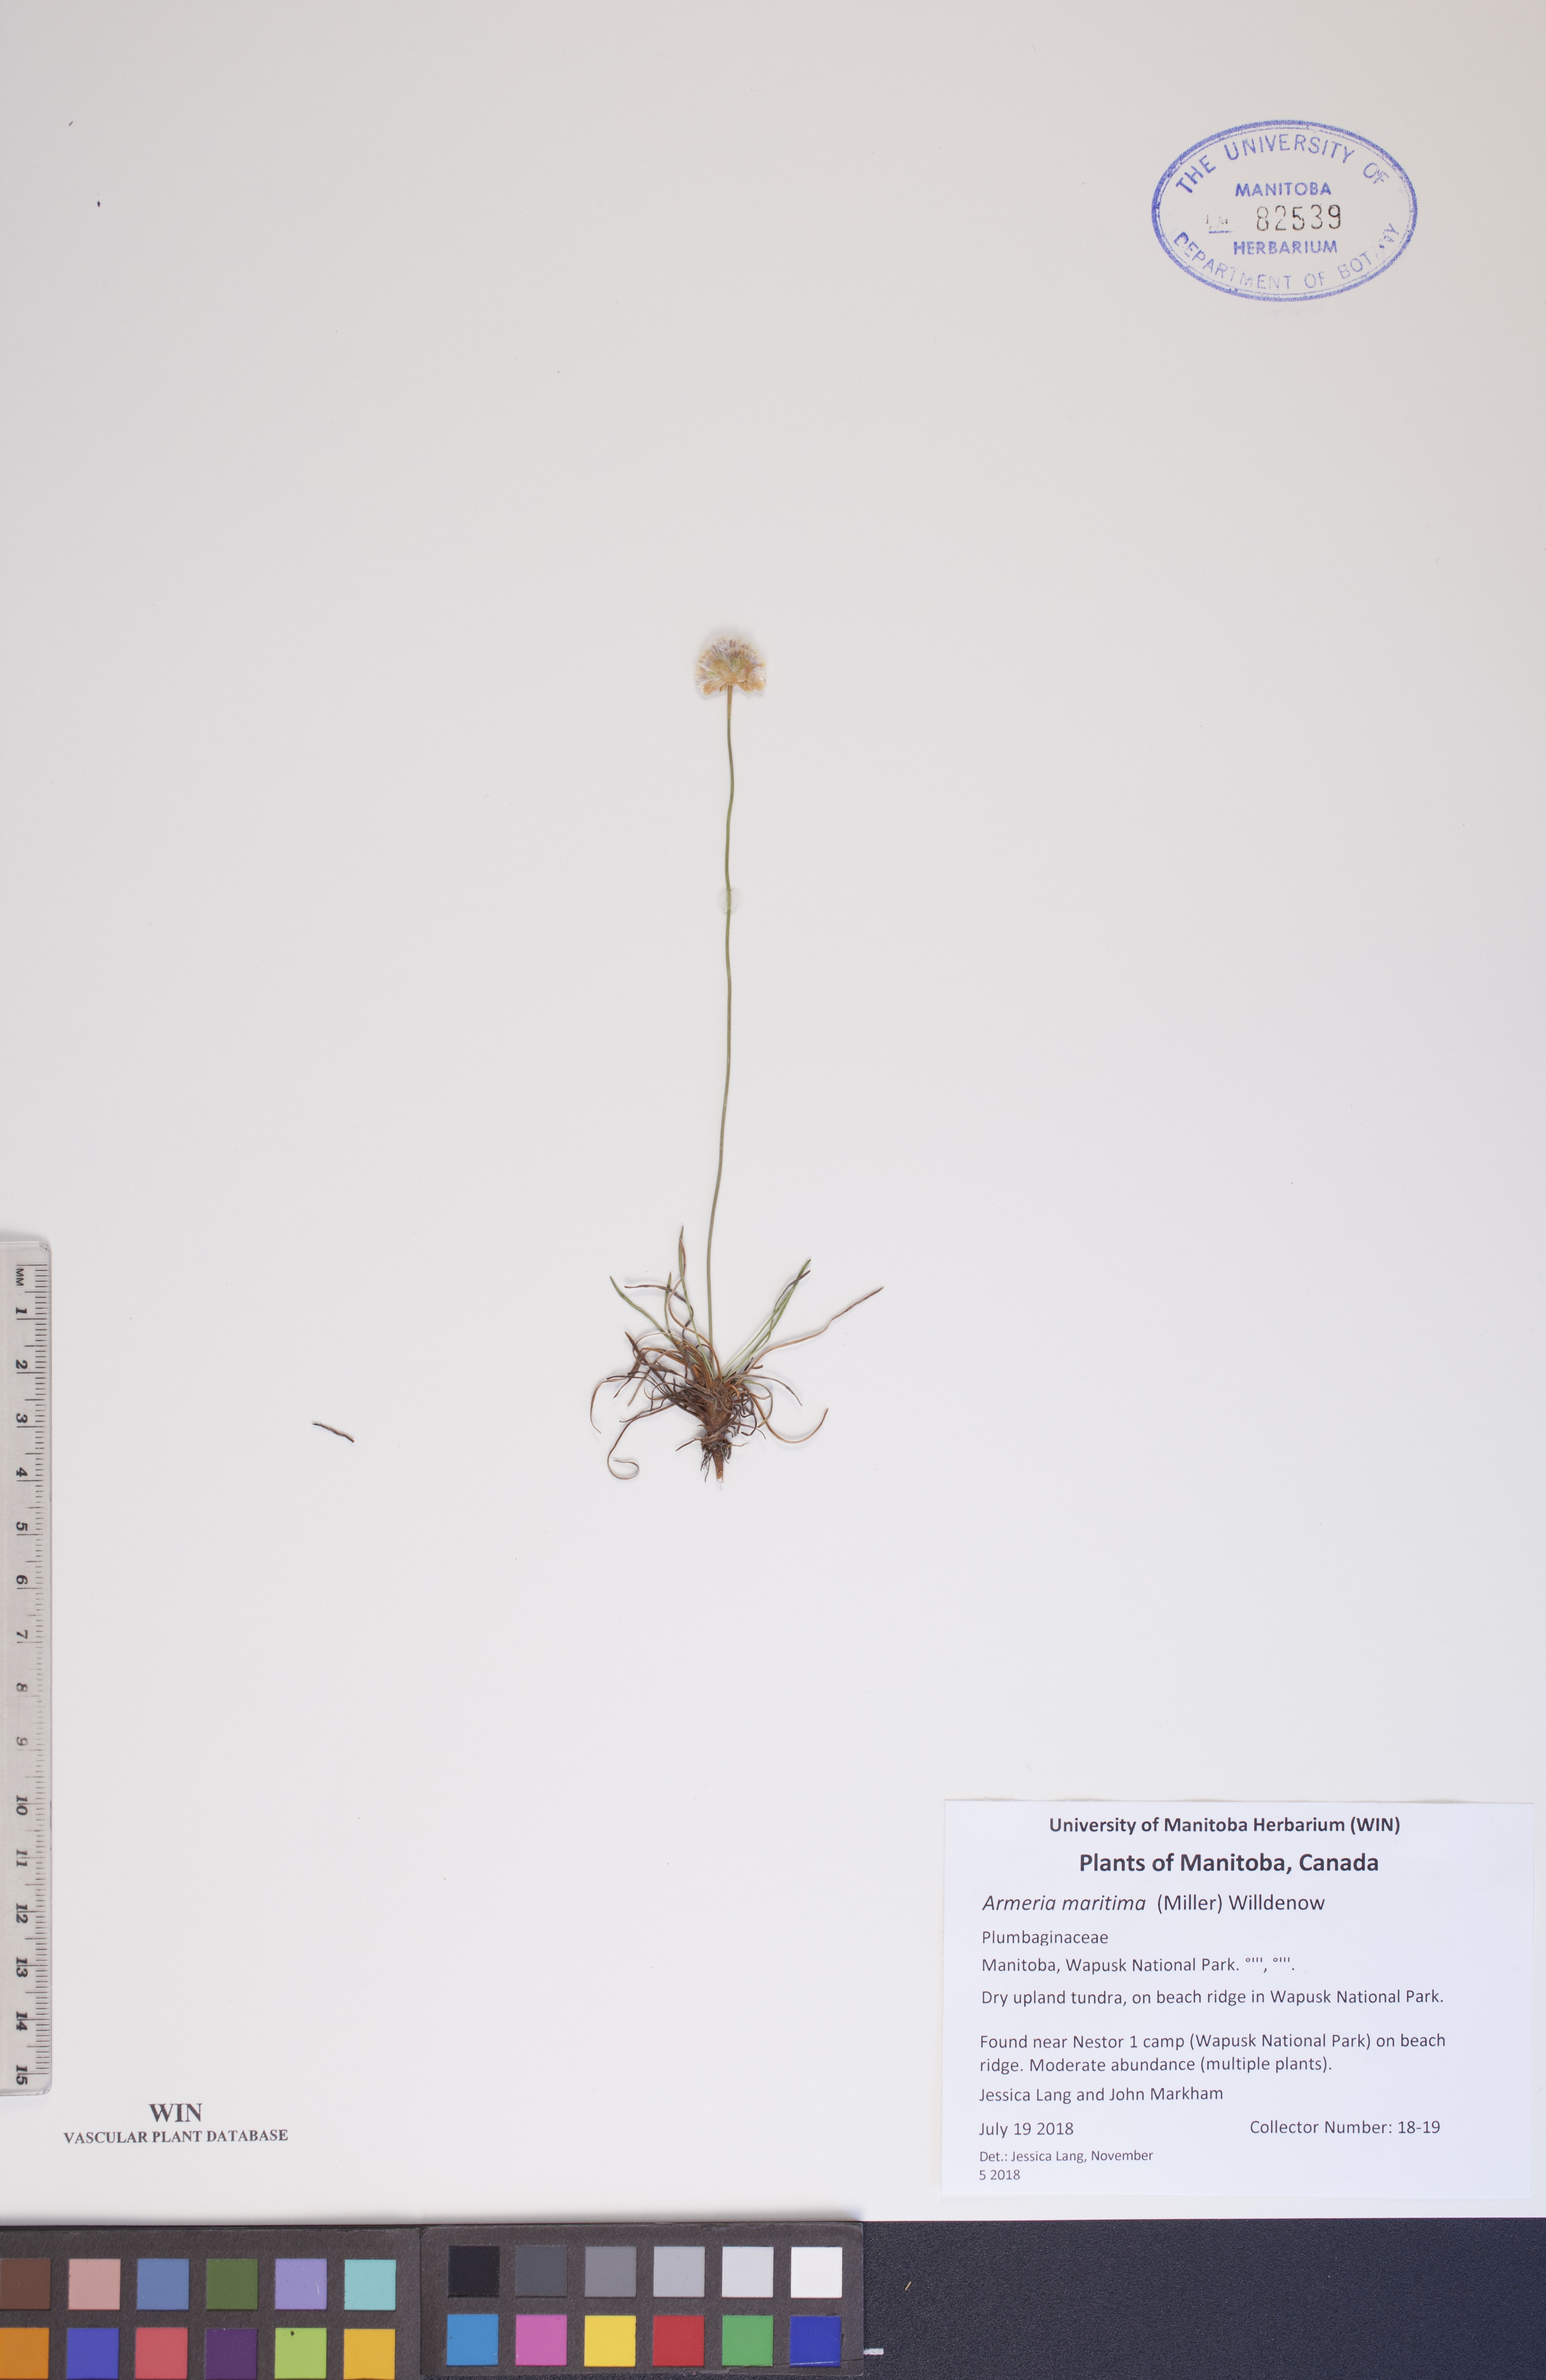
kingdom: Plantae
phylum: Tracheophyta
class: Magnoliopsida
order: Caryophyllales
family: Plumbaginaceae
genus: Armeria
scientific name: Armeria maritima
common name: Thrift
